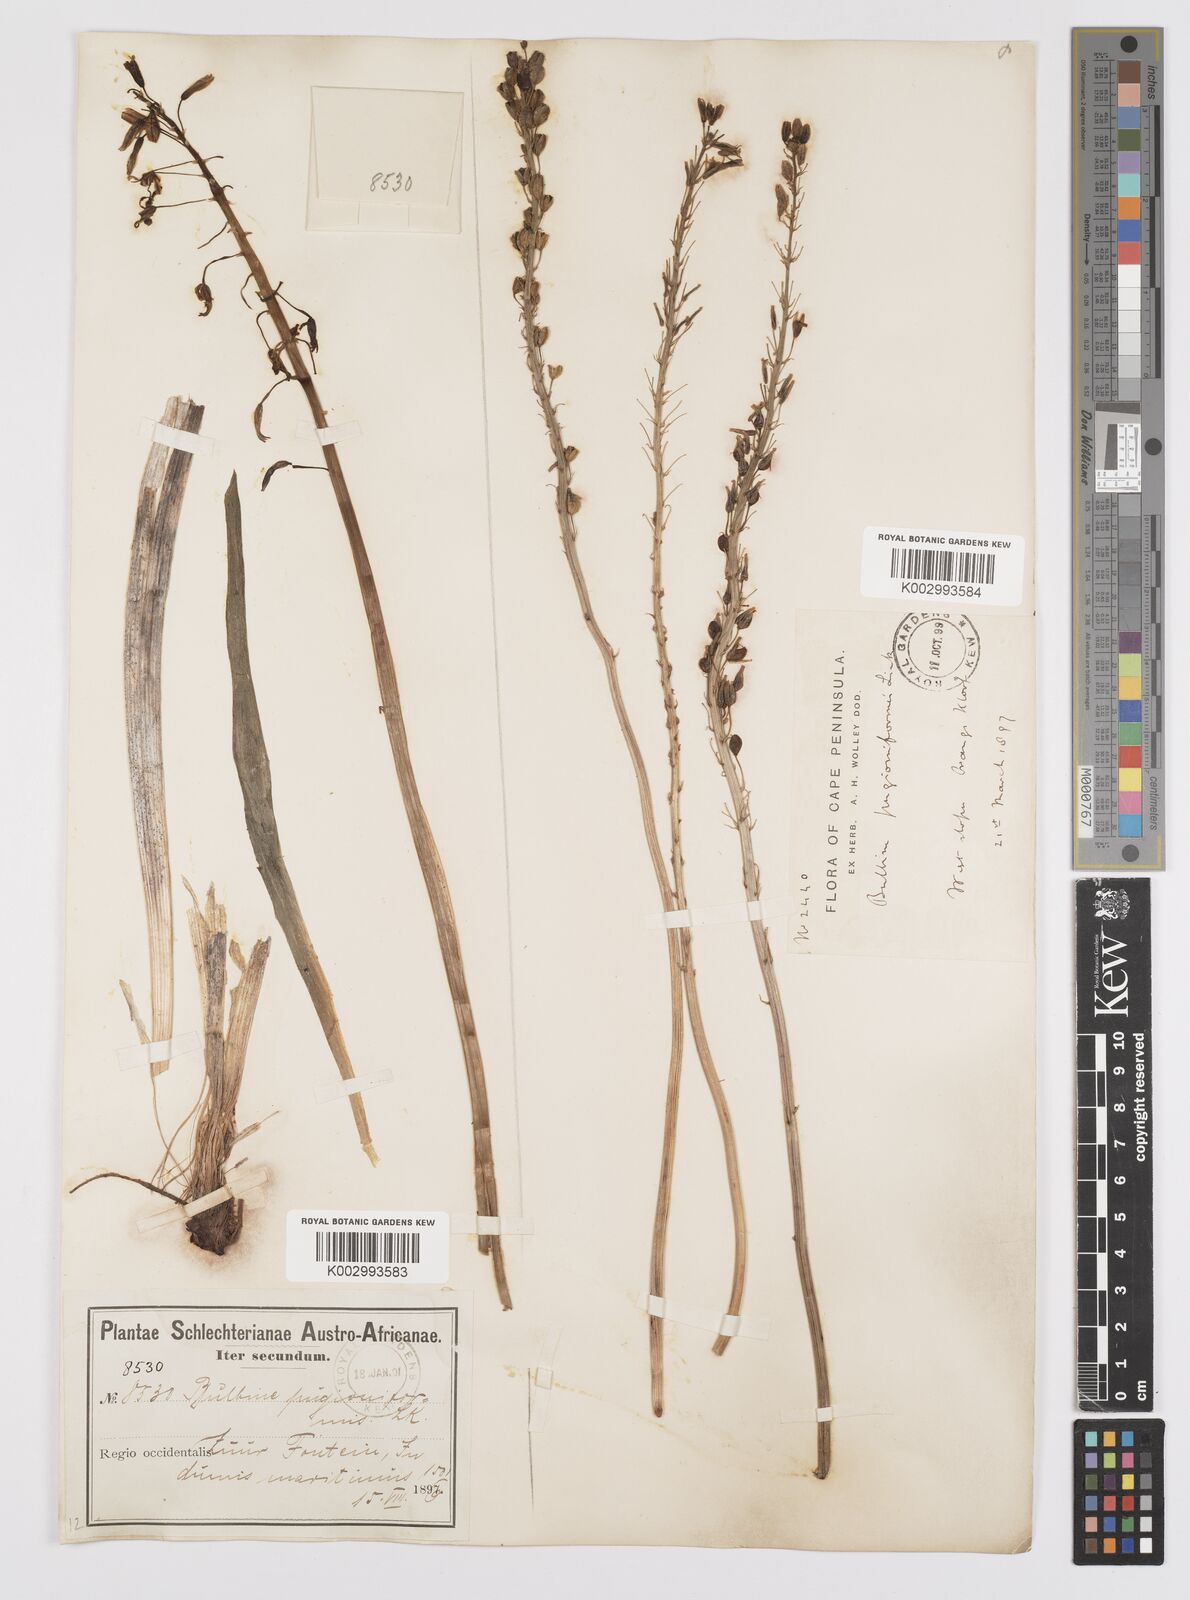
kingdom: Plantae
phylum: Tracheophyta
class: Liliopsida
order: Asparagales
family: Asphodelaceae
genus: Bulbine
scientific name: Bulbine cepacea
